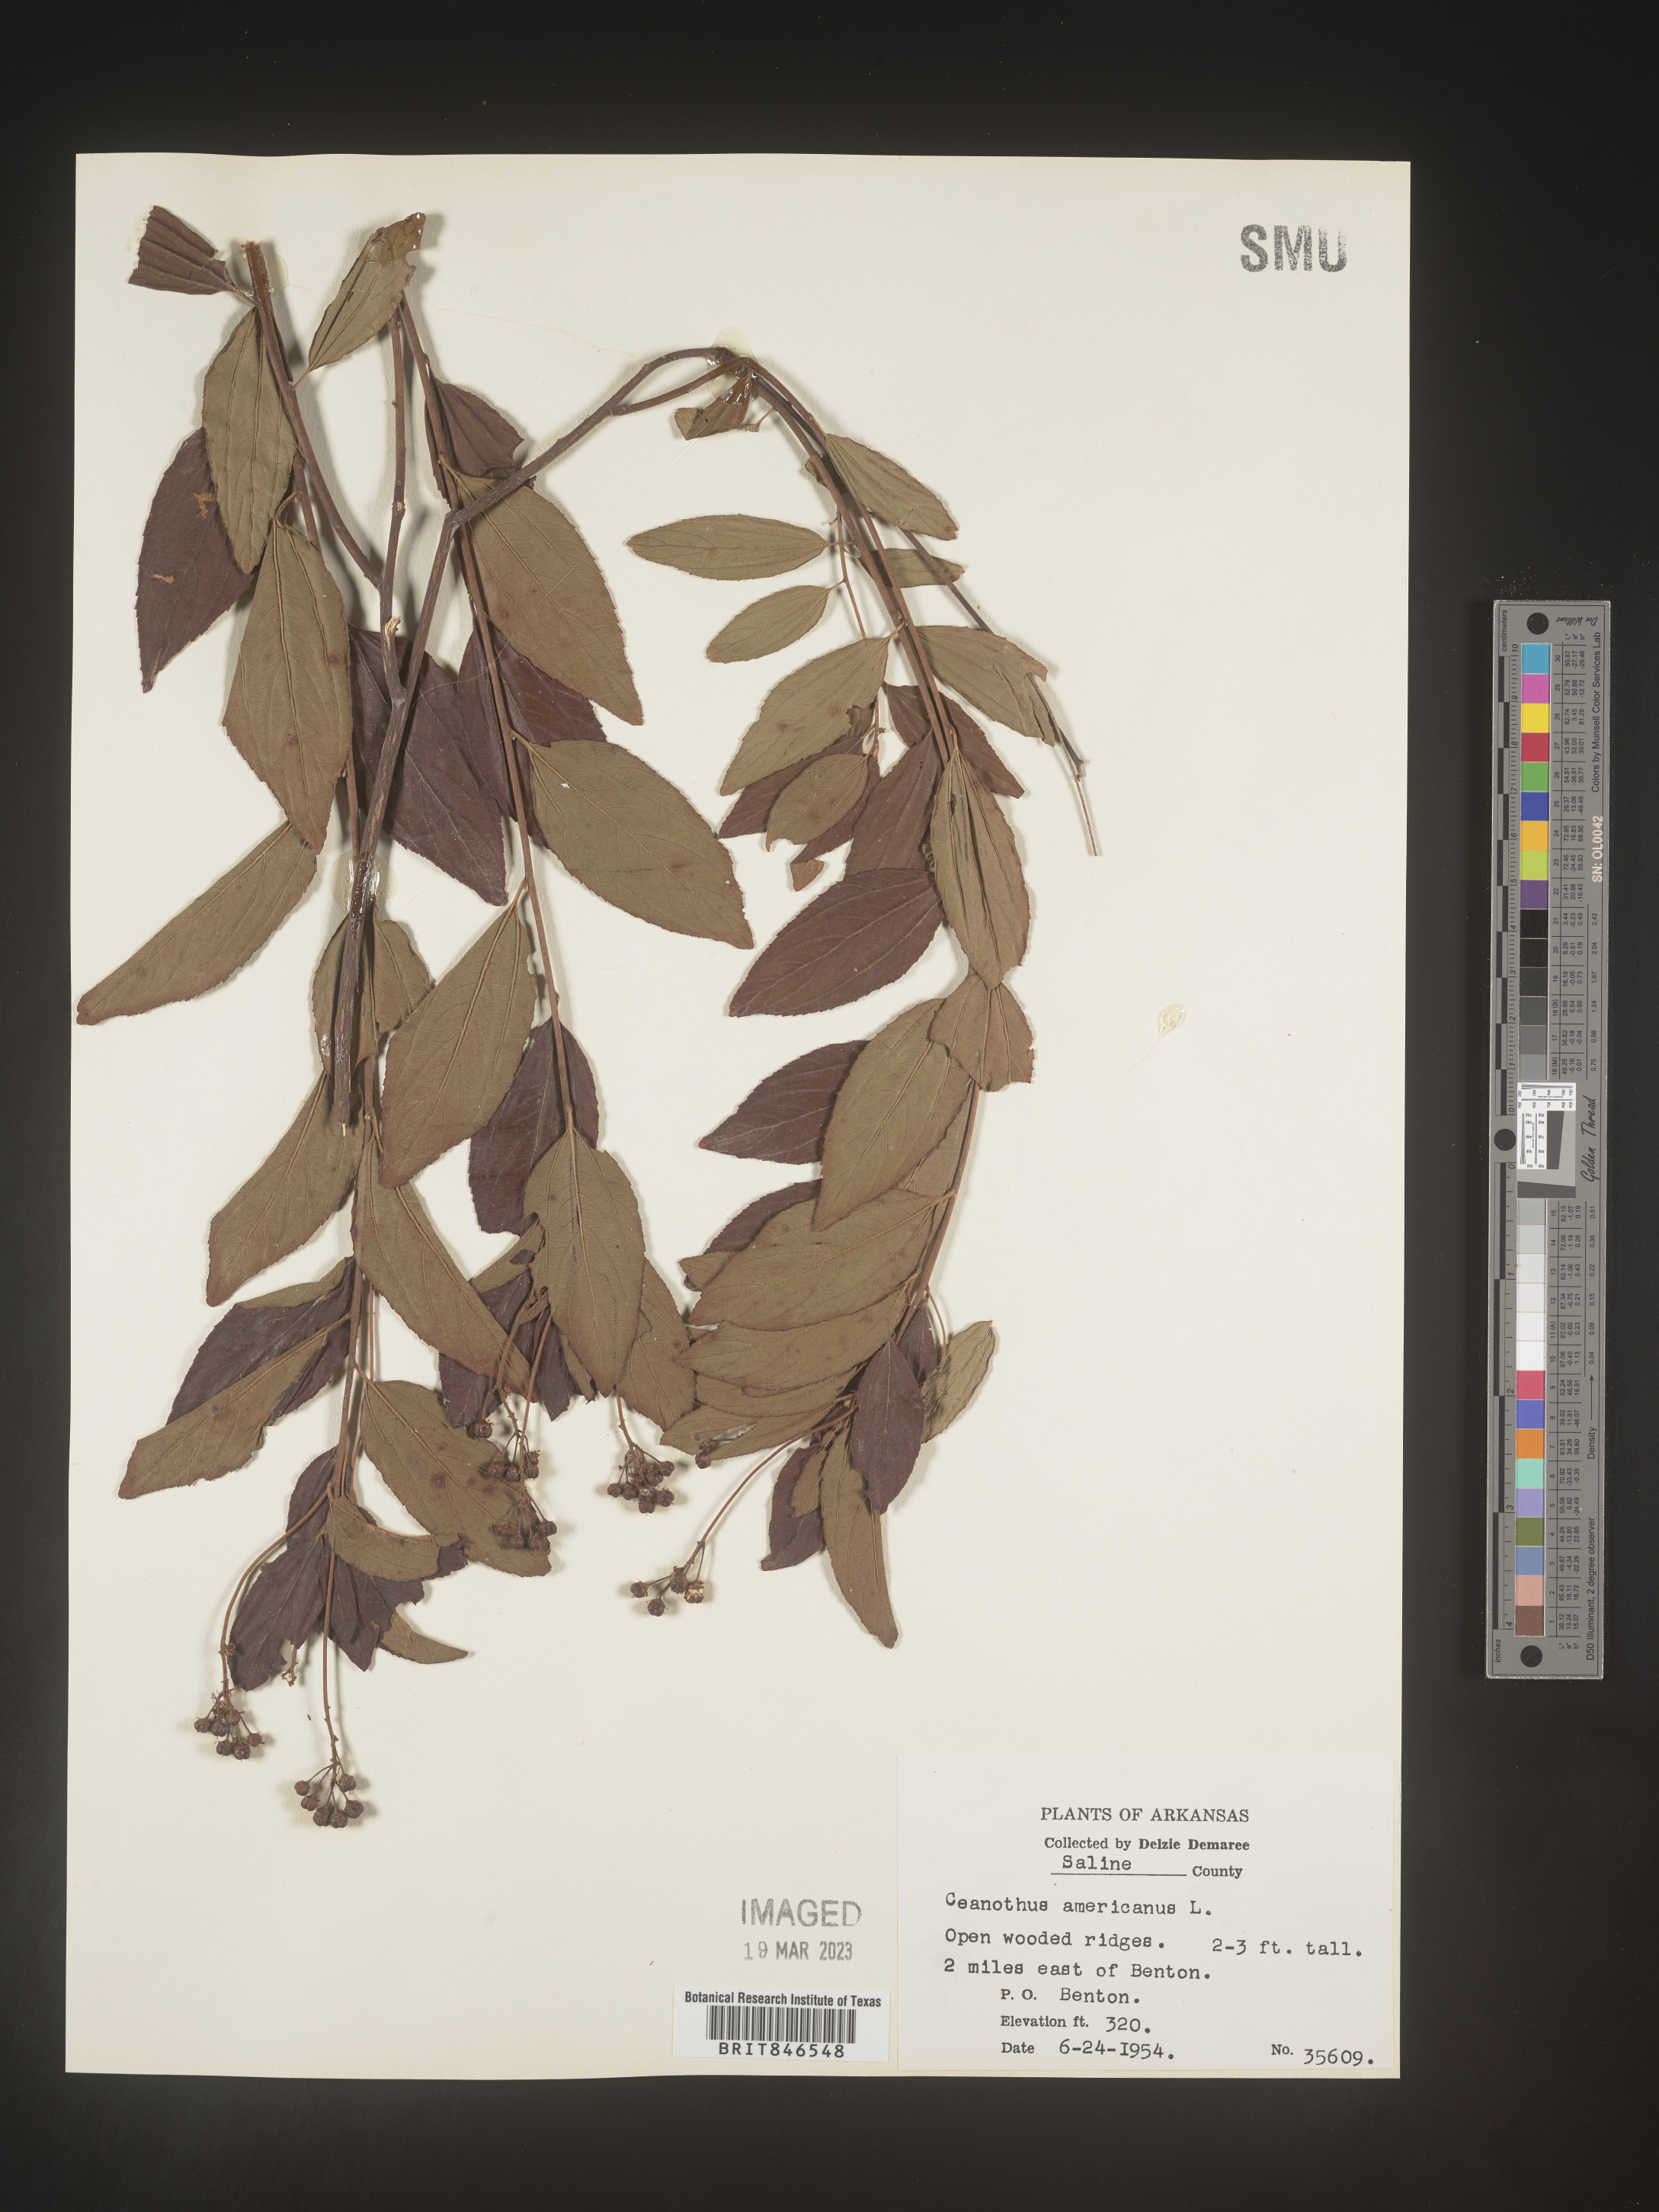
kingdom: Plantae
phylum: Tracheophyta
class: Magnoliopsida
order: Rosales
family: Rhamnaceae
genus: Ceanothus
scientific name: Ceanothus americanus
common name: Redroot
